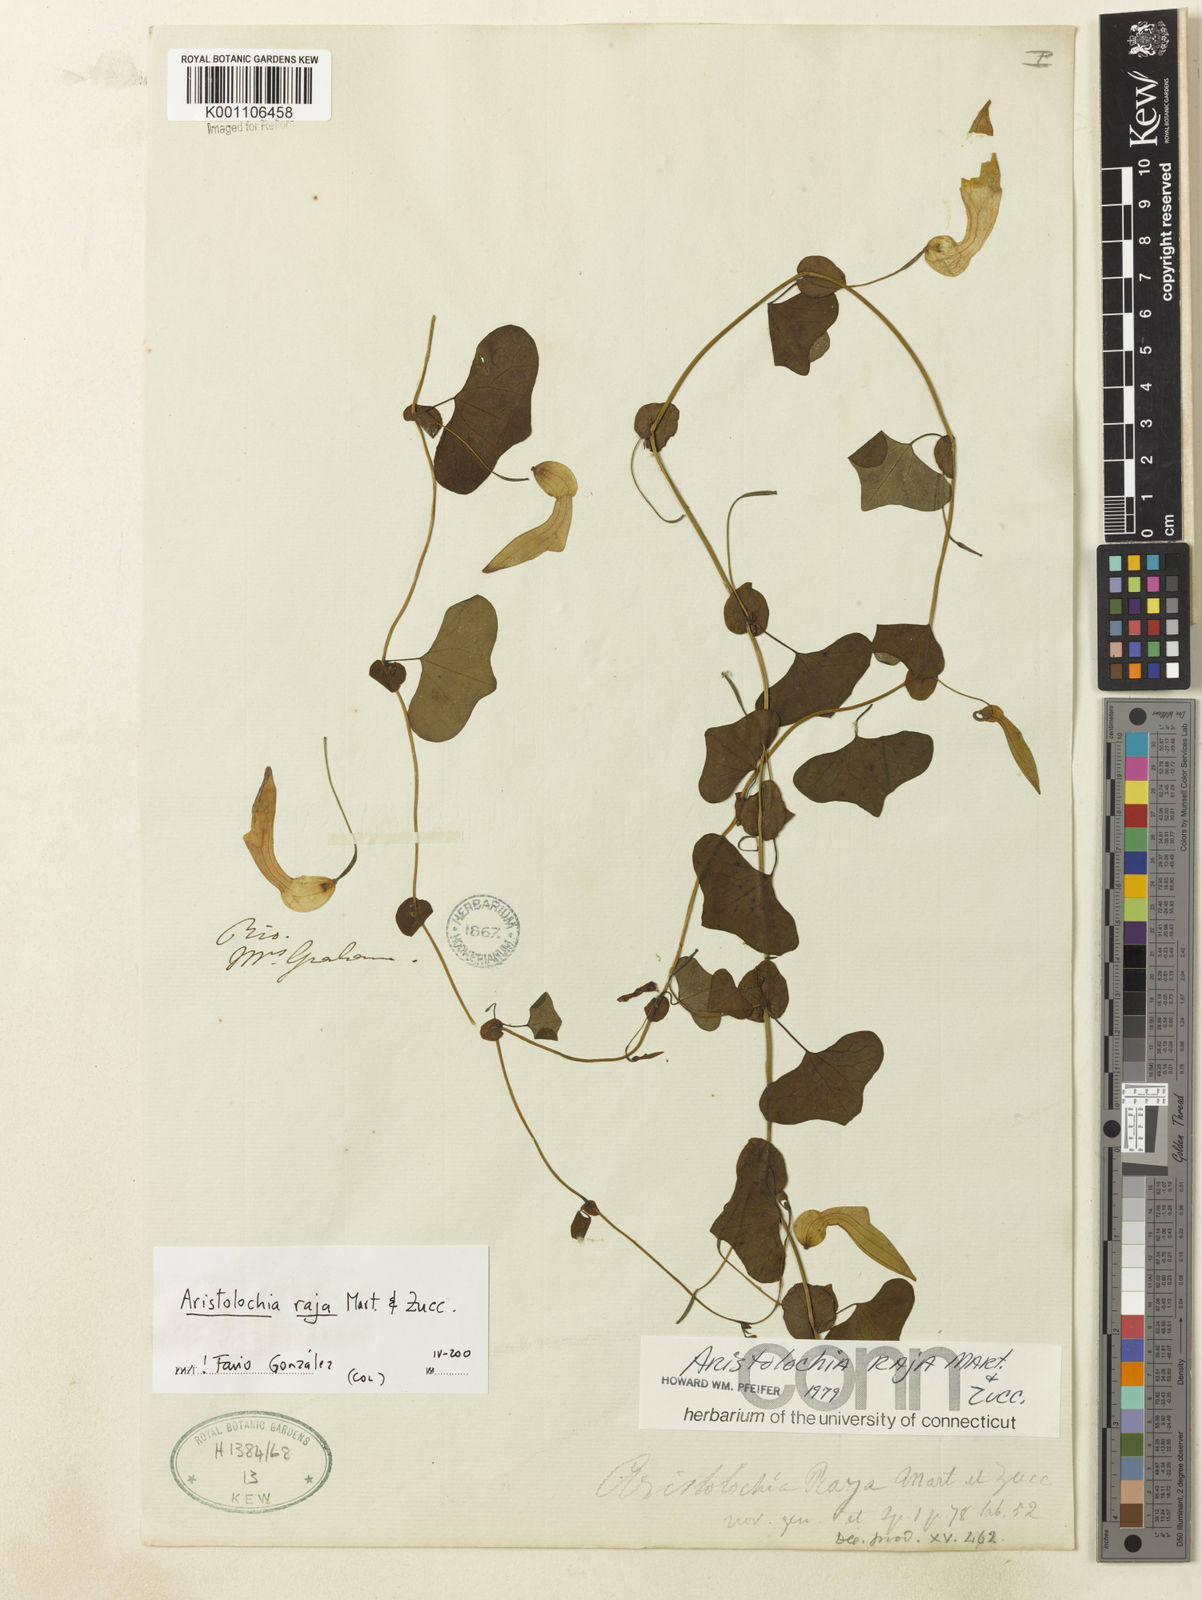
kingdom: Plantae
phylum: Tracheophyta
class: Magnoliopsida
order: Piperales
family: Aristolochiaceae
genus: Aristolochia
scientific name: Aristolochia raja
